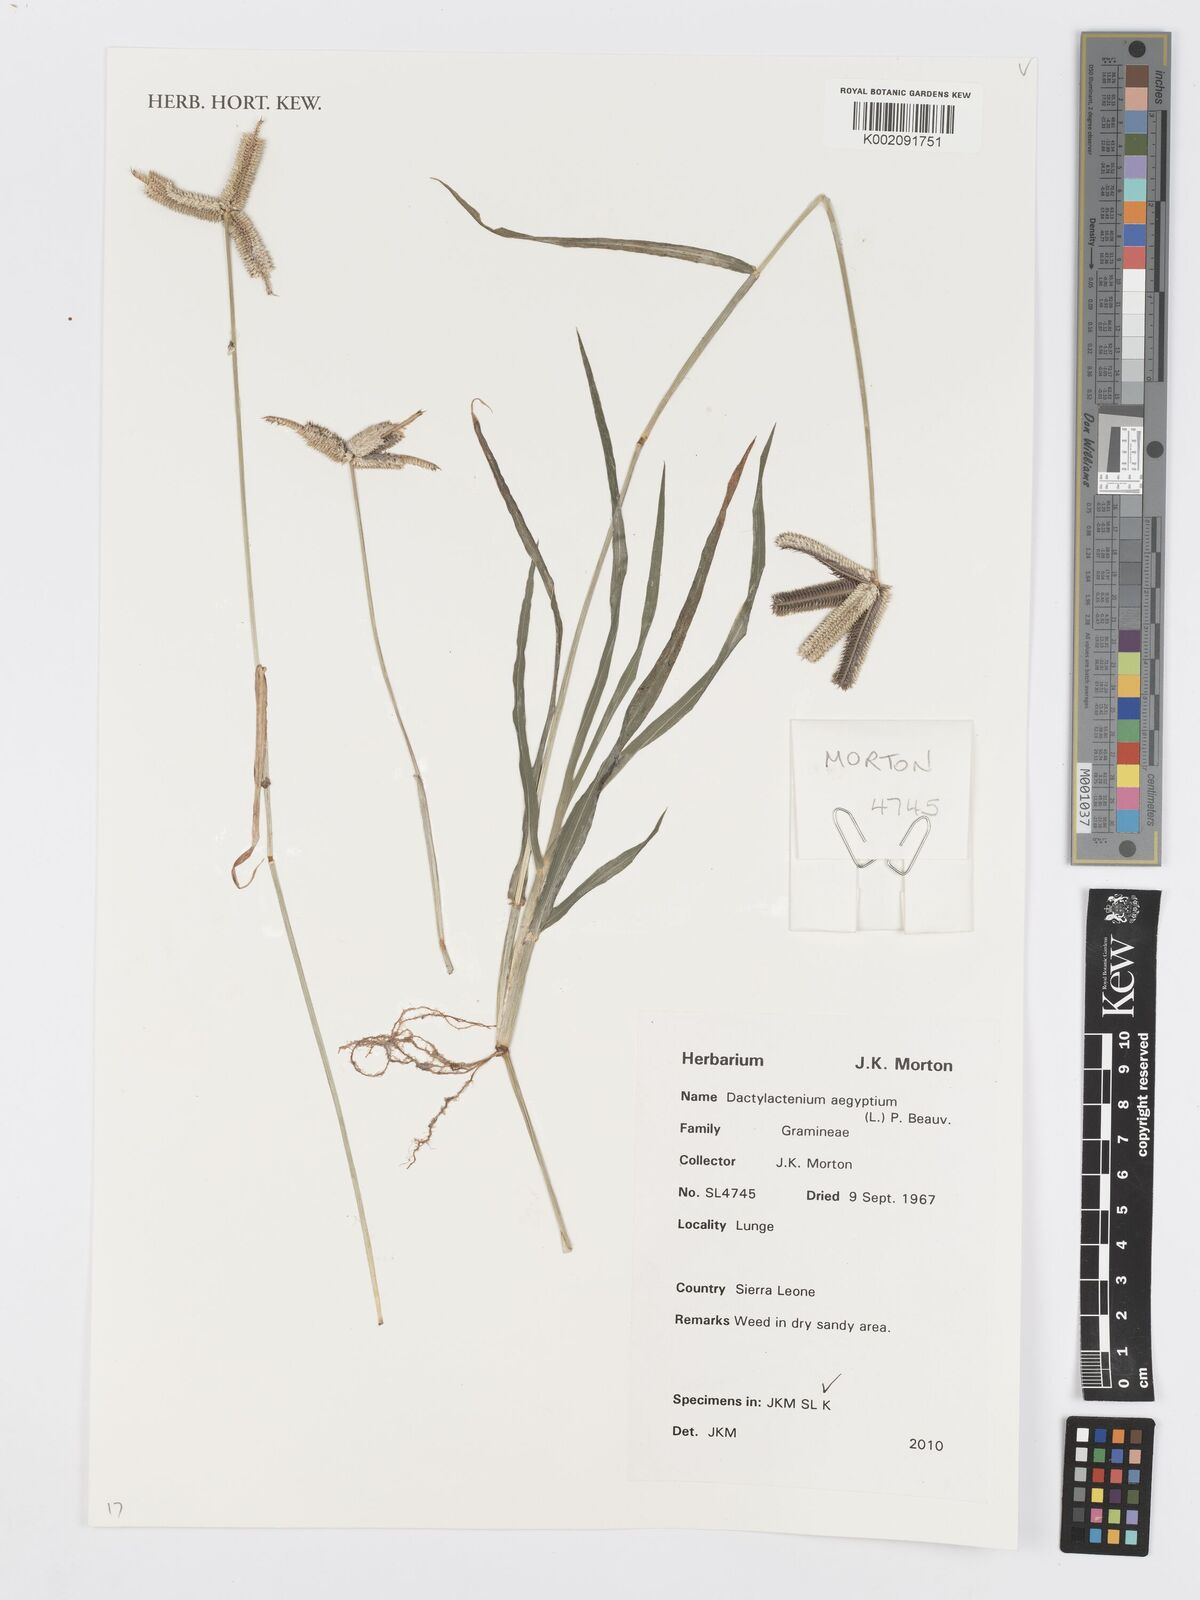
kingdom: Plantae
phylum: Tracheophyta
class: Liliopsida
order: Poales
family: Poaceae
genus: Dactyloctenium
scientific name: Dactyloctenium aegyptium
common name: Egyptian grass
